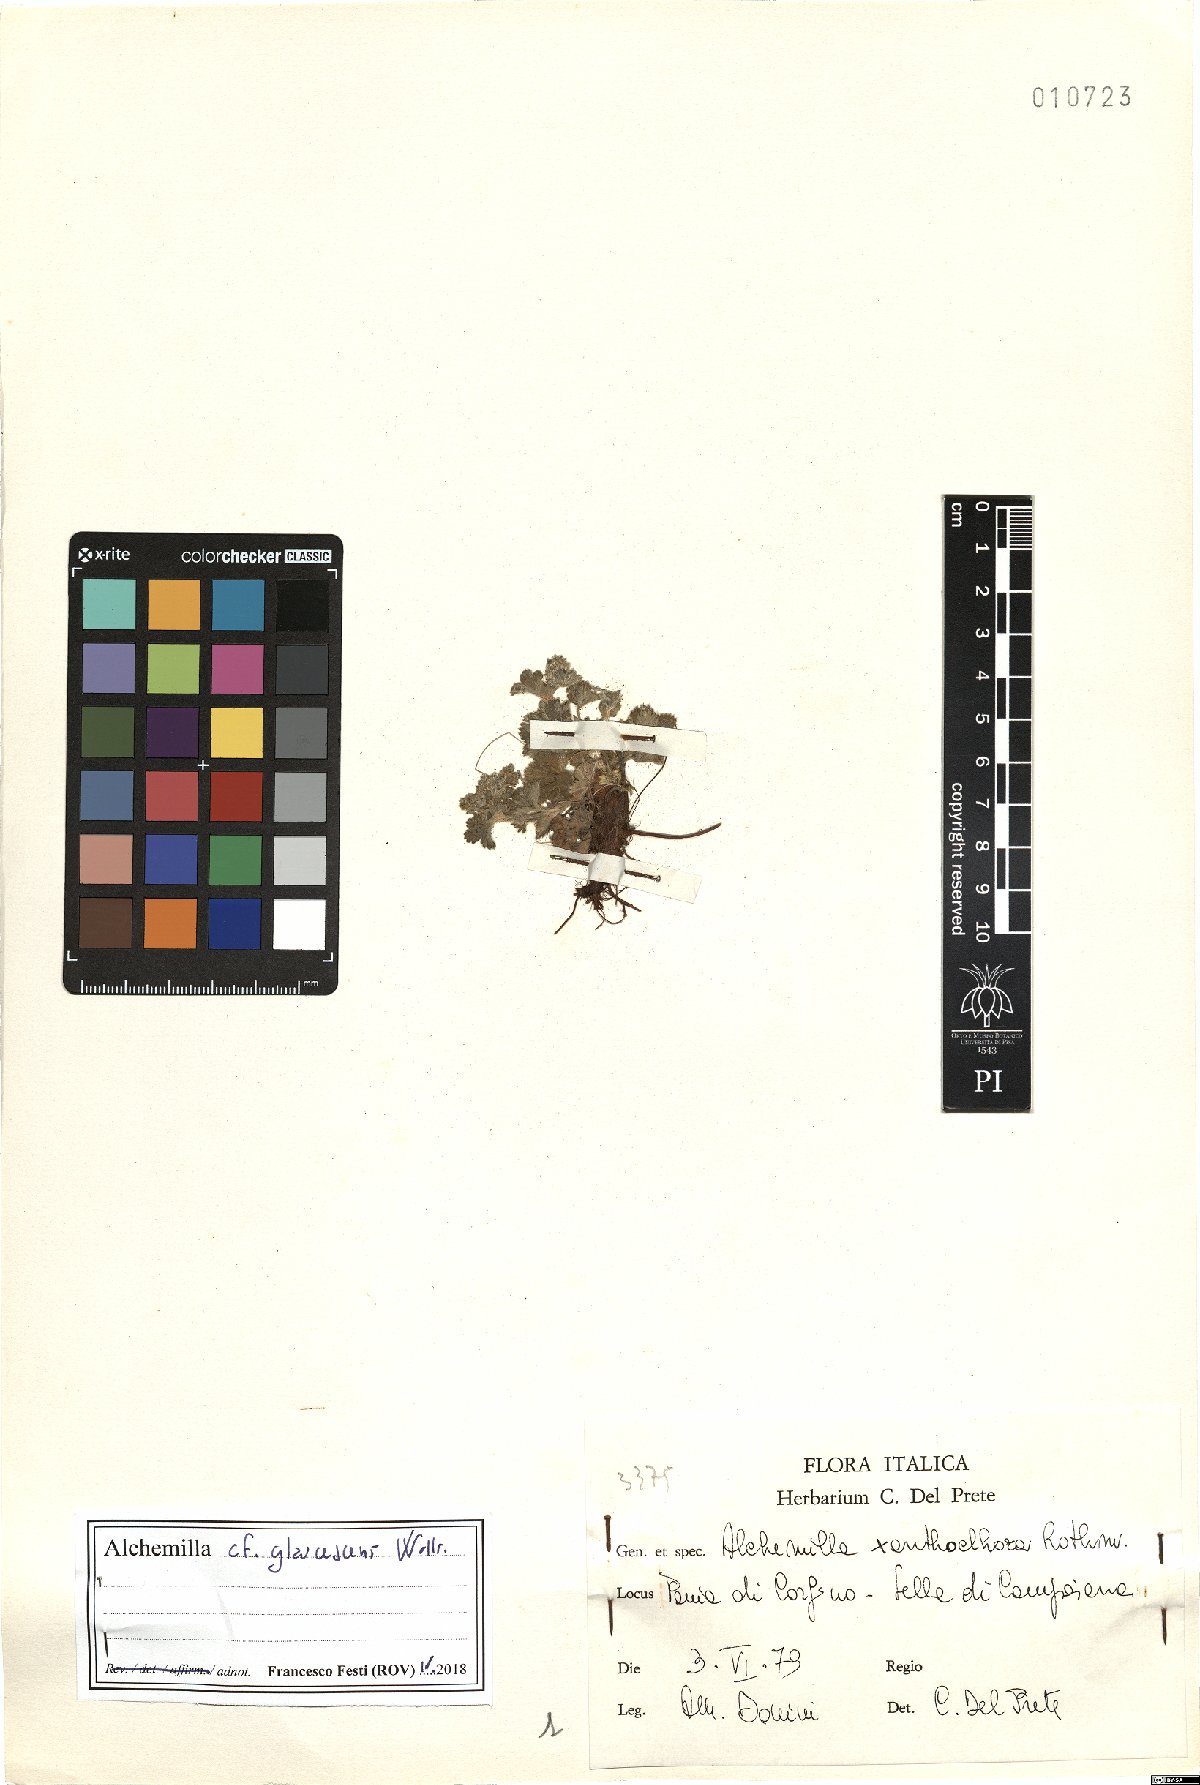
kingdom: Plantae
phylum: Tracheophyta
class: Magnoliopsida
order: Rosales
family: Rosaceae
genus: Alchemilla
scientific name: Alchemilla glaucescens
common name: Silky lady's mantle
